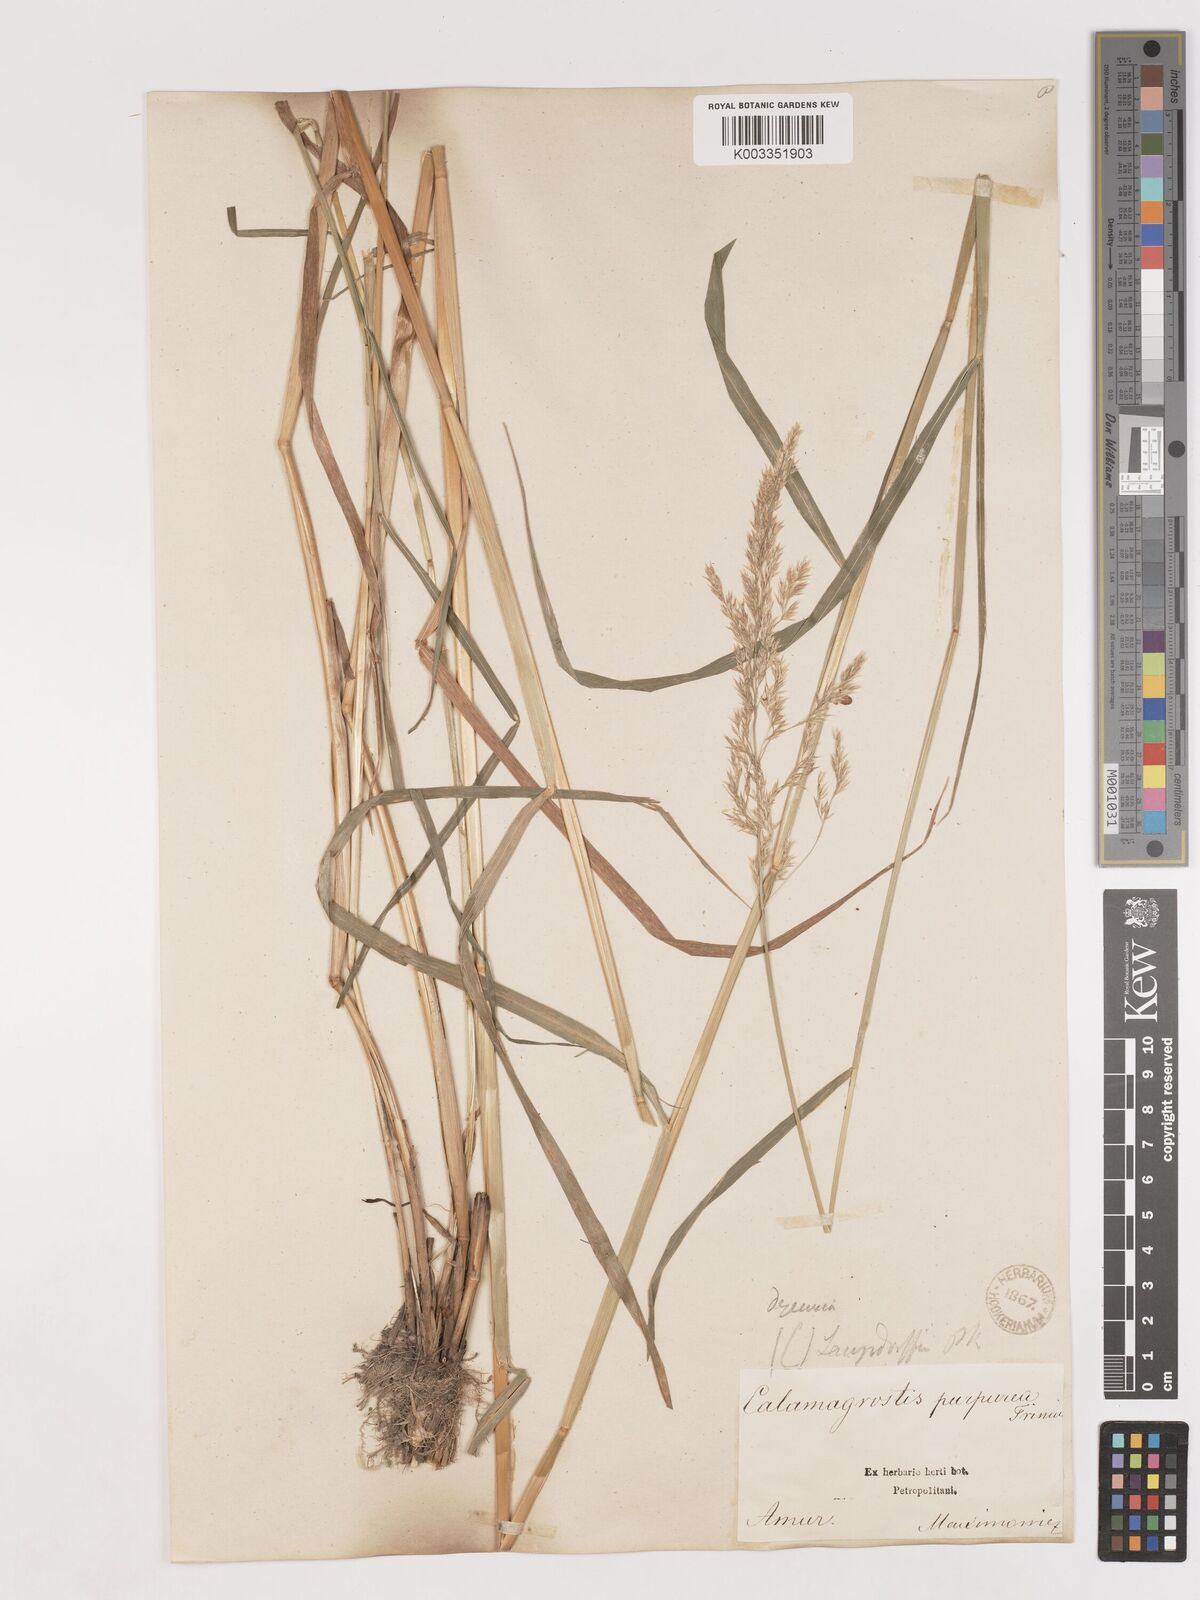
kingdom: Plantae
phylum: Tracheophyta
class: Liliopsida
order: Poales
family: Poaceae
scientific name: Poaceae
